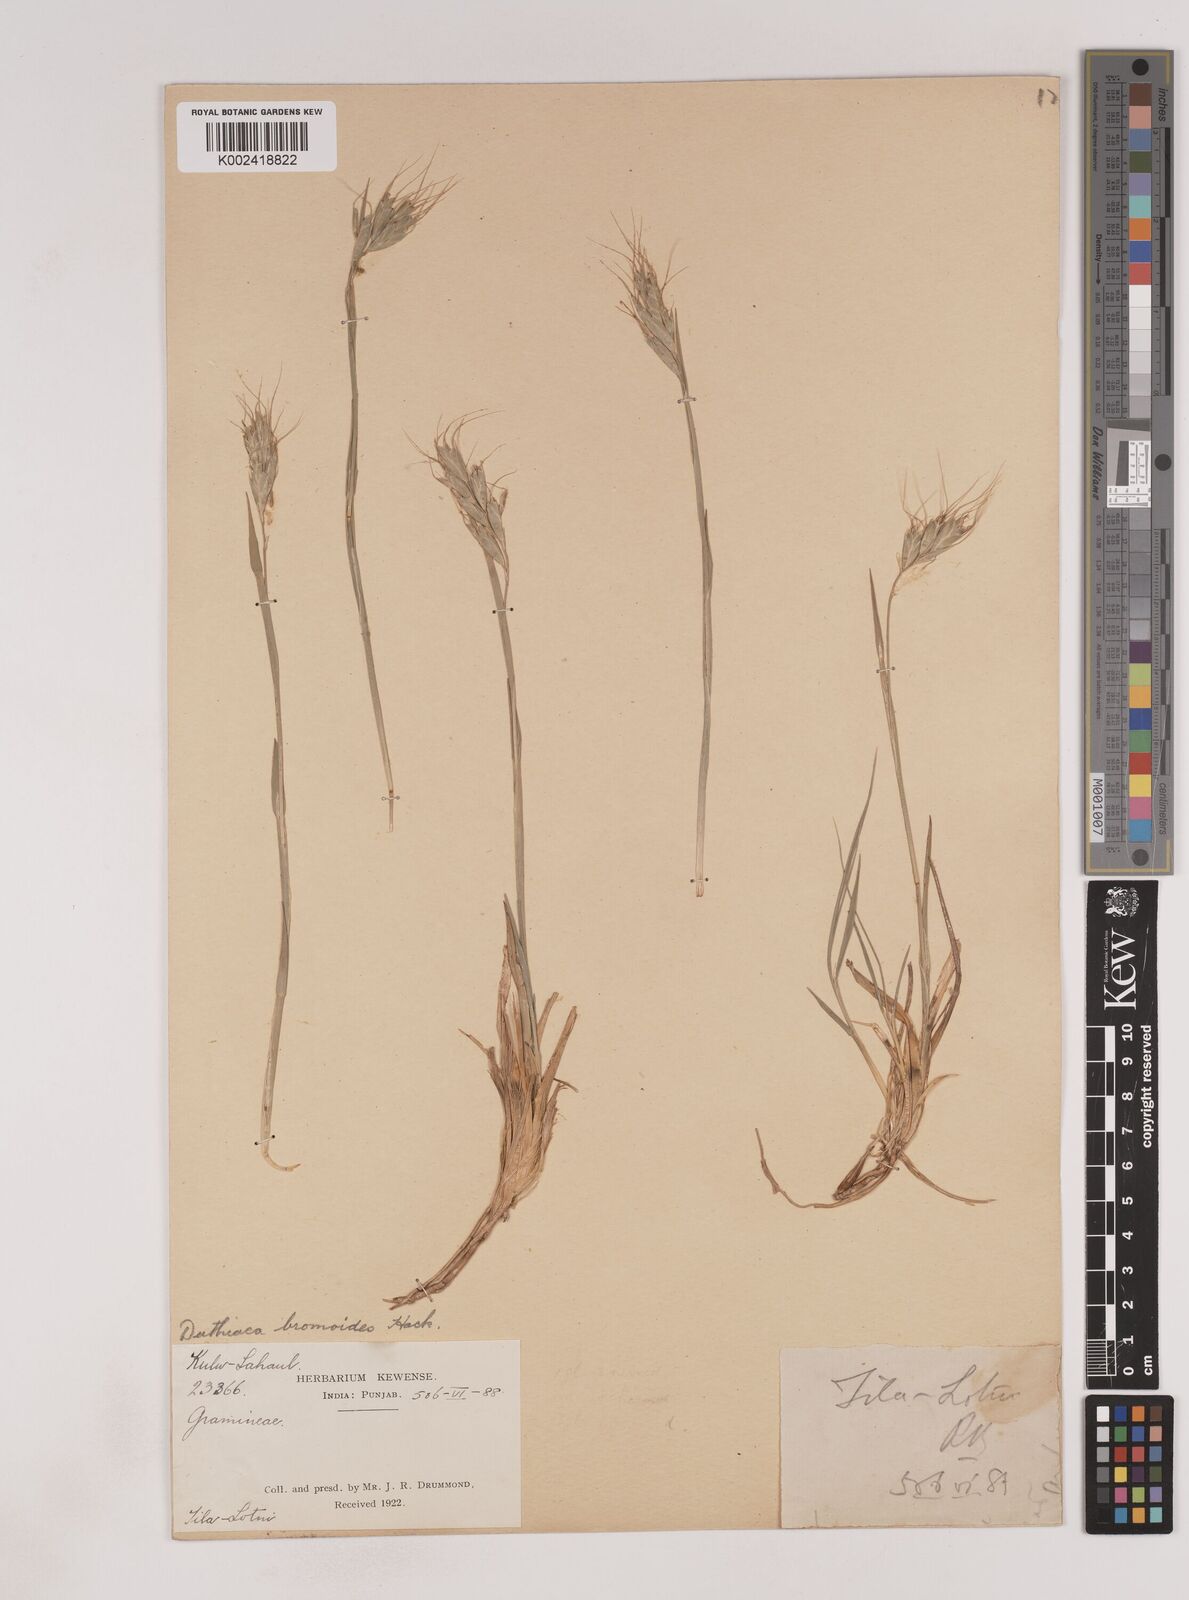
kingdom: Plantae
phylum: Tracheophyta
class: Liliopsida
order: Poales
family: Poaceae
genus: Duthiea
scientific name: Duthiea bromoides
